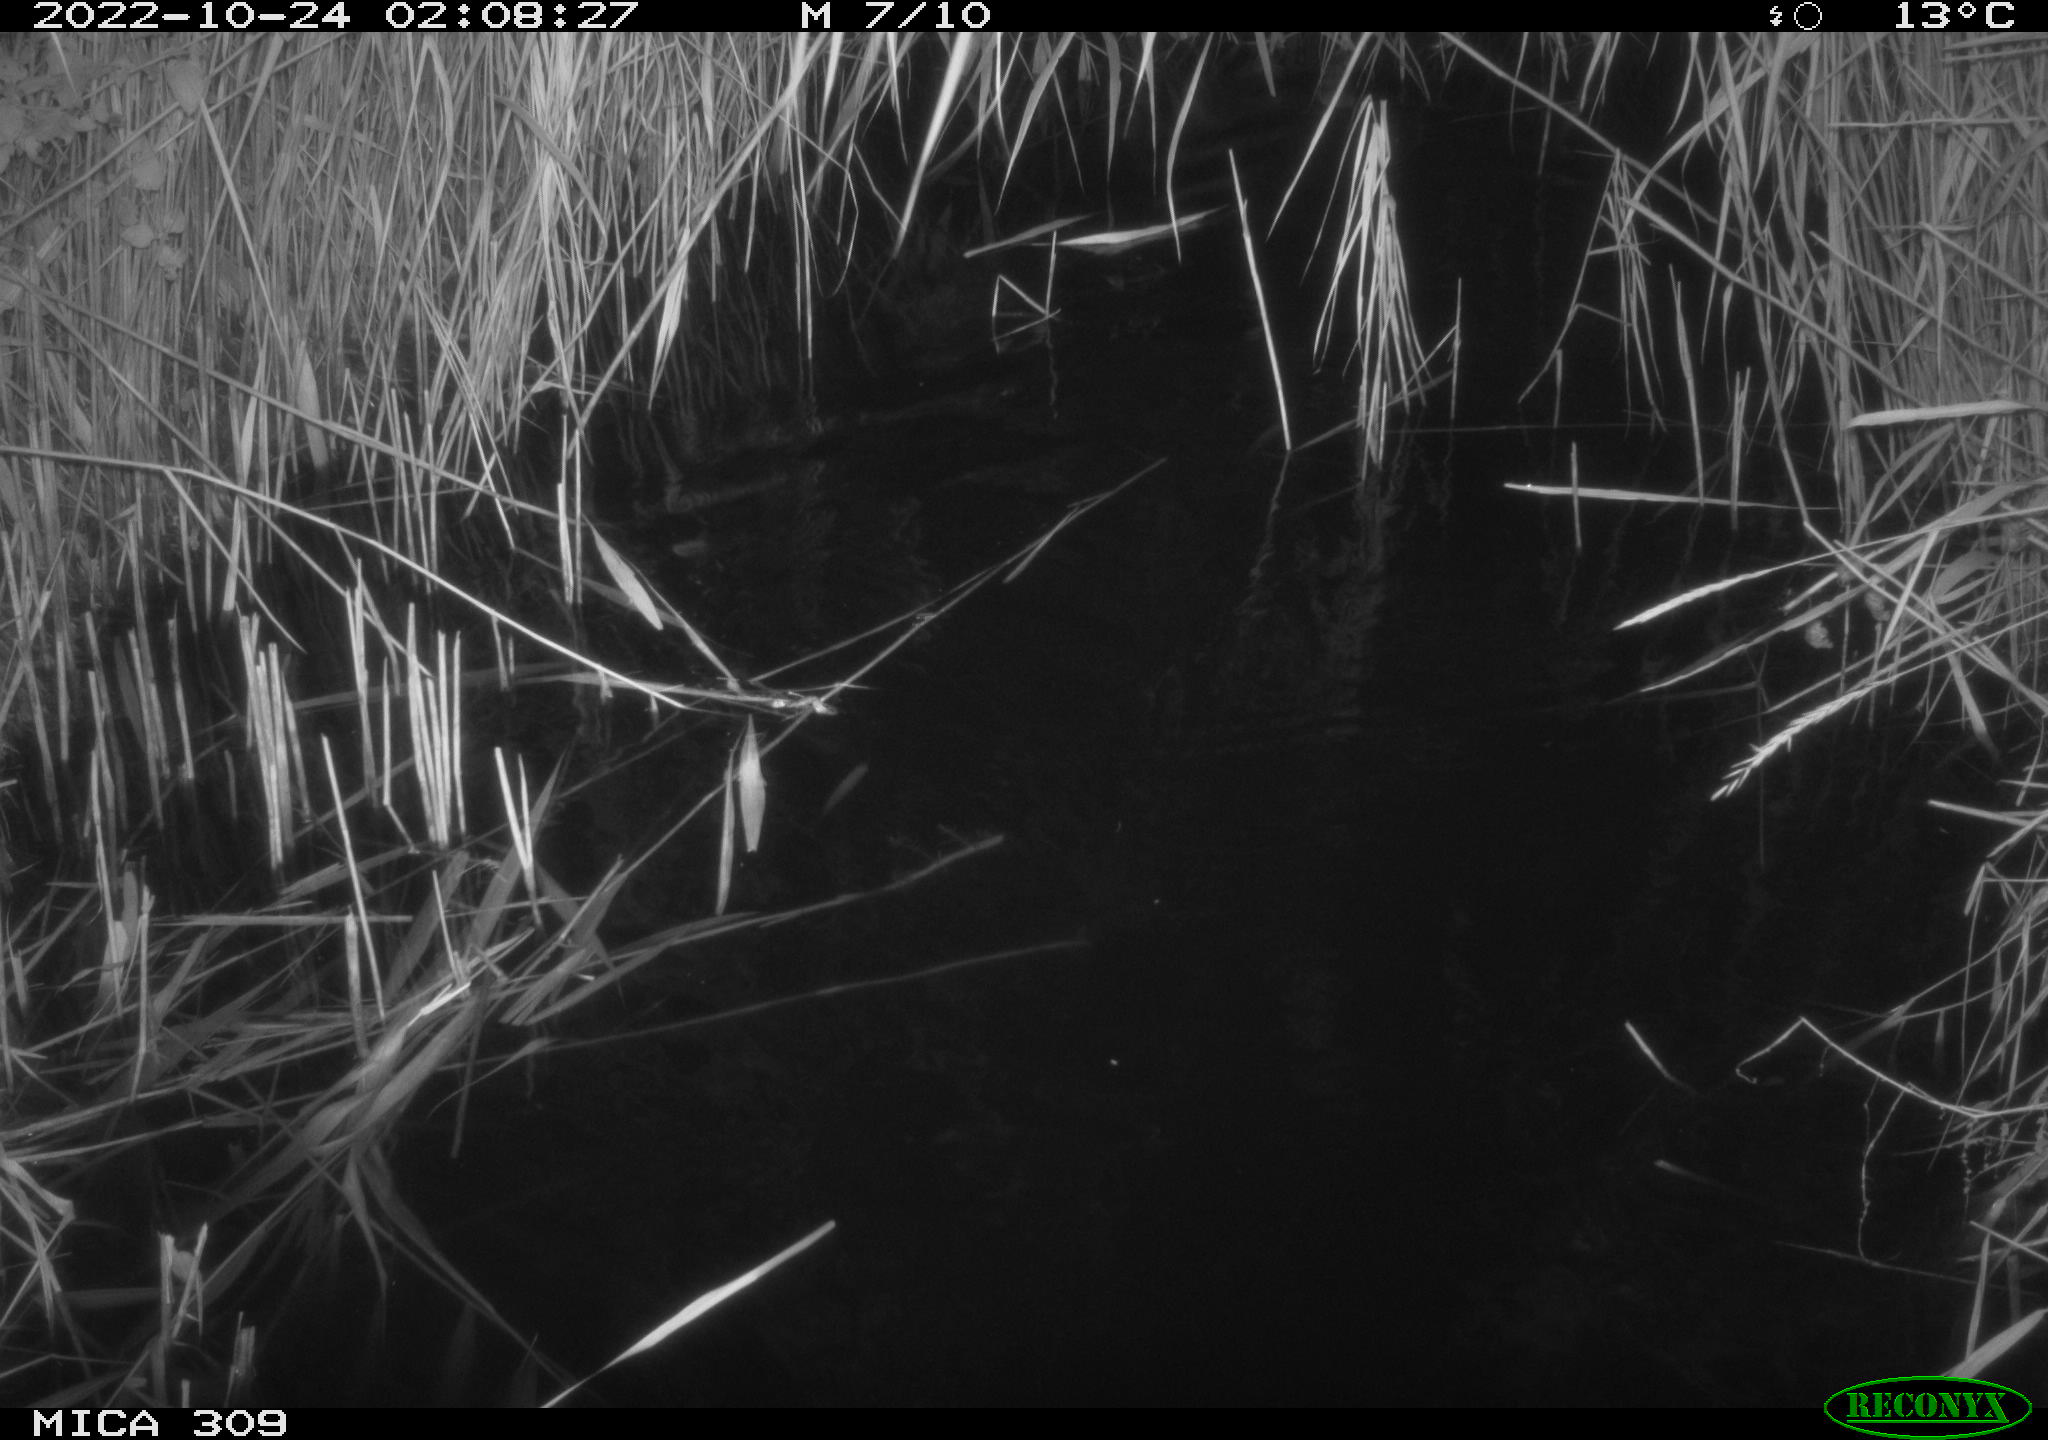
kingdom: Animalia
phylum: Chordata
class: Mammalia
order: Rodentia
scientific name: Rodentia
